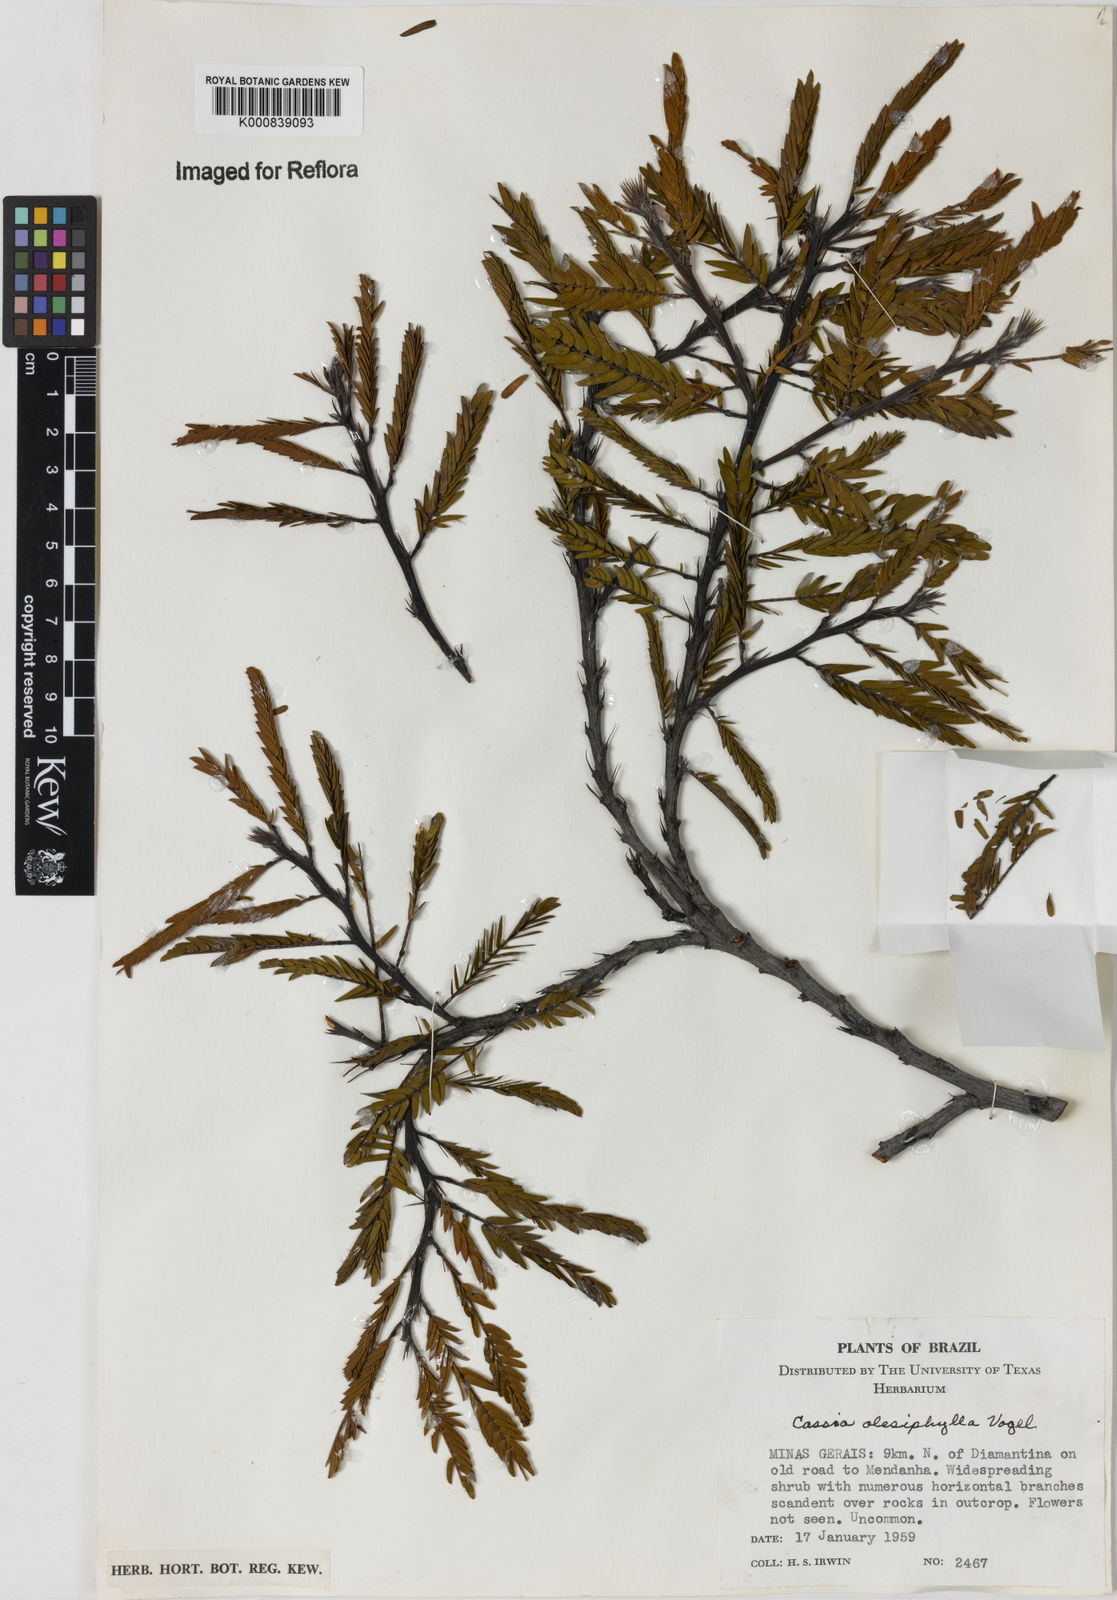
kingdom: Plantae
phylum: Tracheophyta
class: Magnoliopsida
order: Fabales
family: Fabaceae
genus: Chamaecrista
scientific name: Chamaecrista
